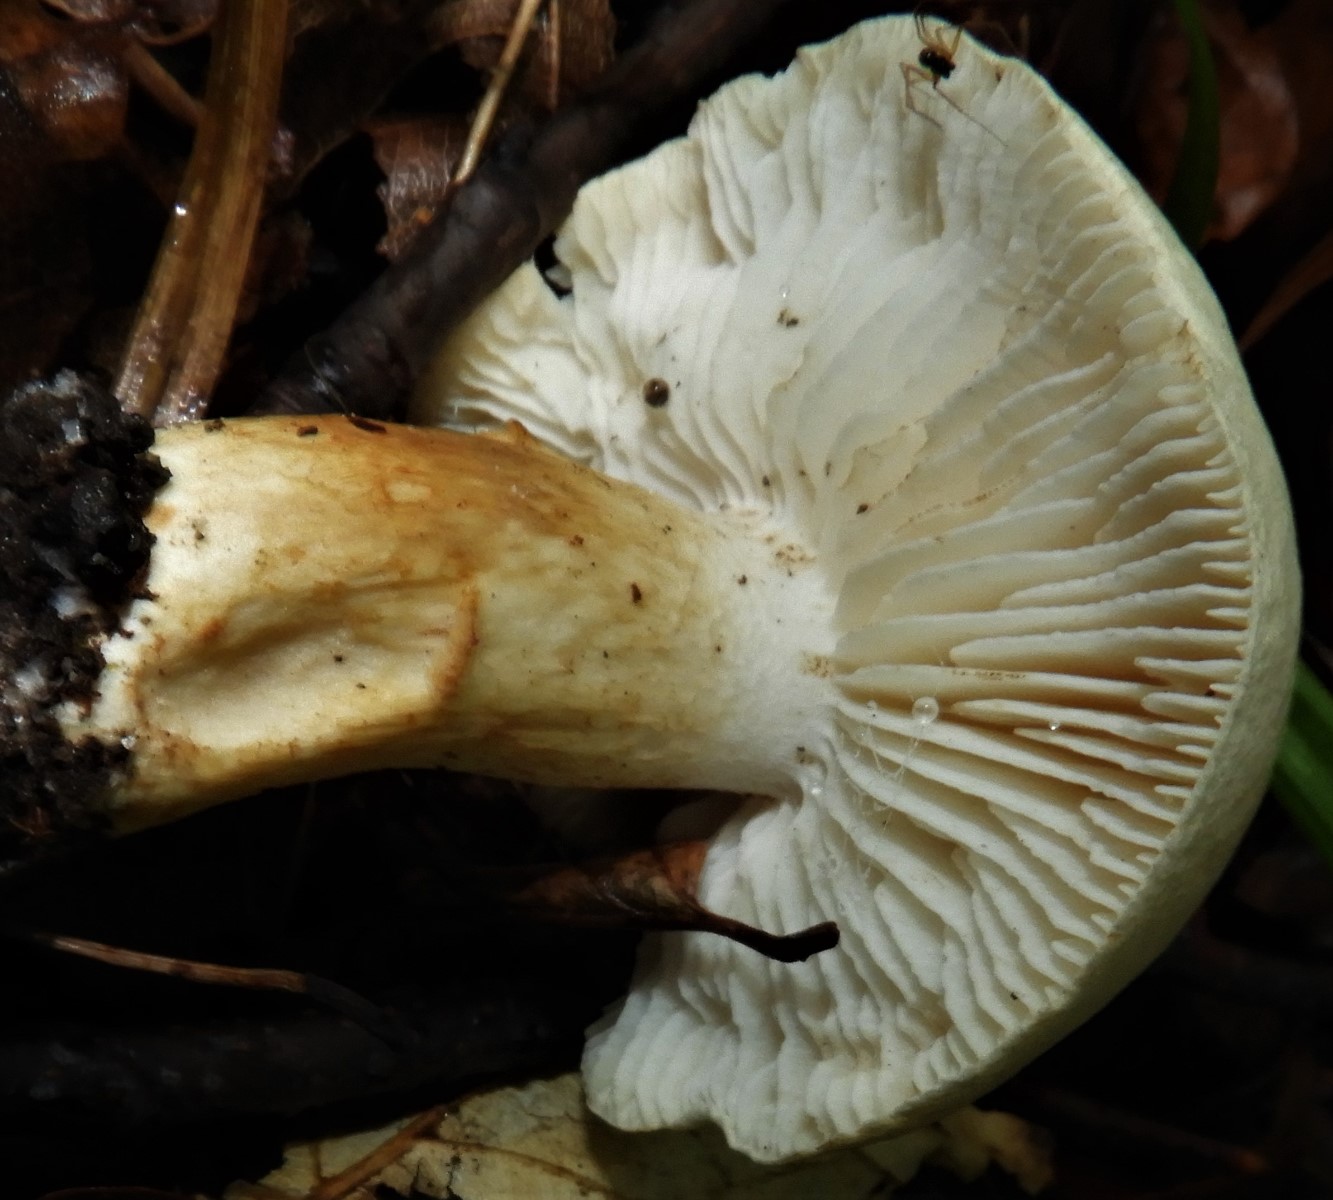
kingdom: Fungi
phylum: Basidiomycota
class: Agaricomycetes
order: Agaricales
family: Tricholomataceae
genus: Tricholoma
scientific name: Tricholoma lascivum
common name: stinkende ridderhat
